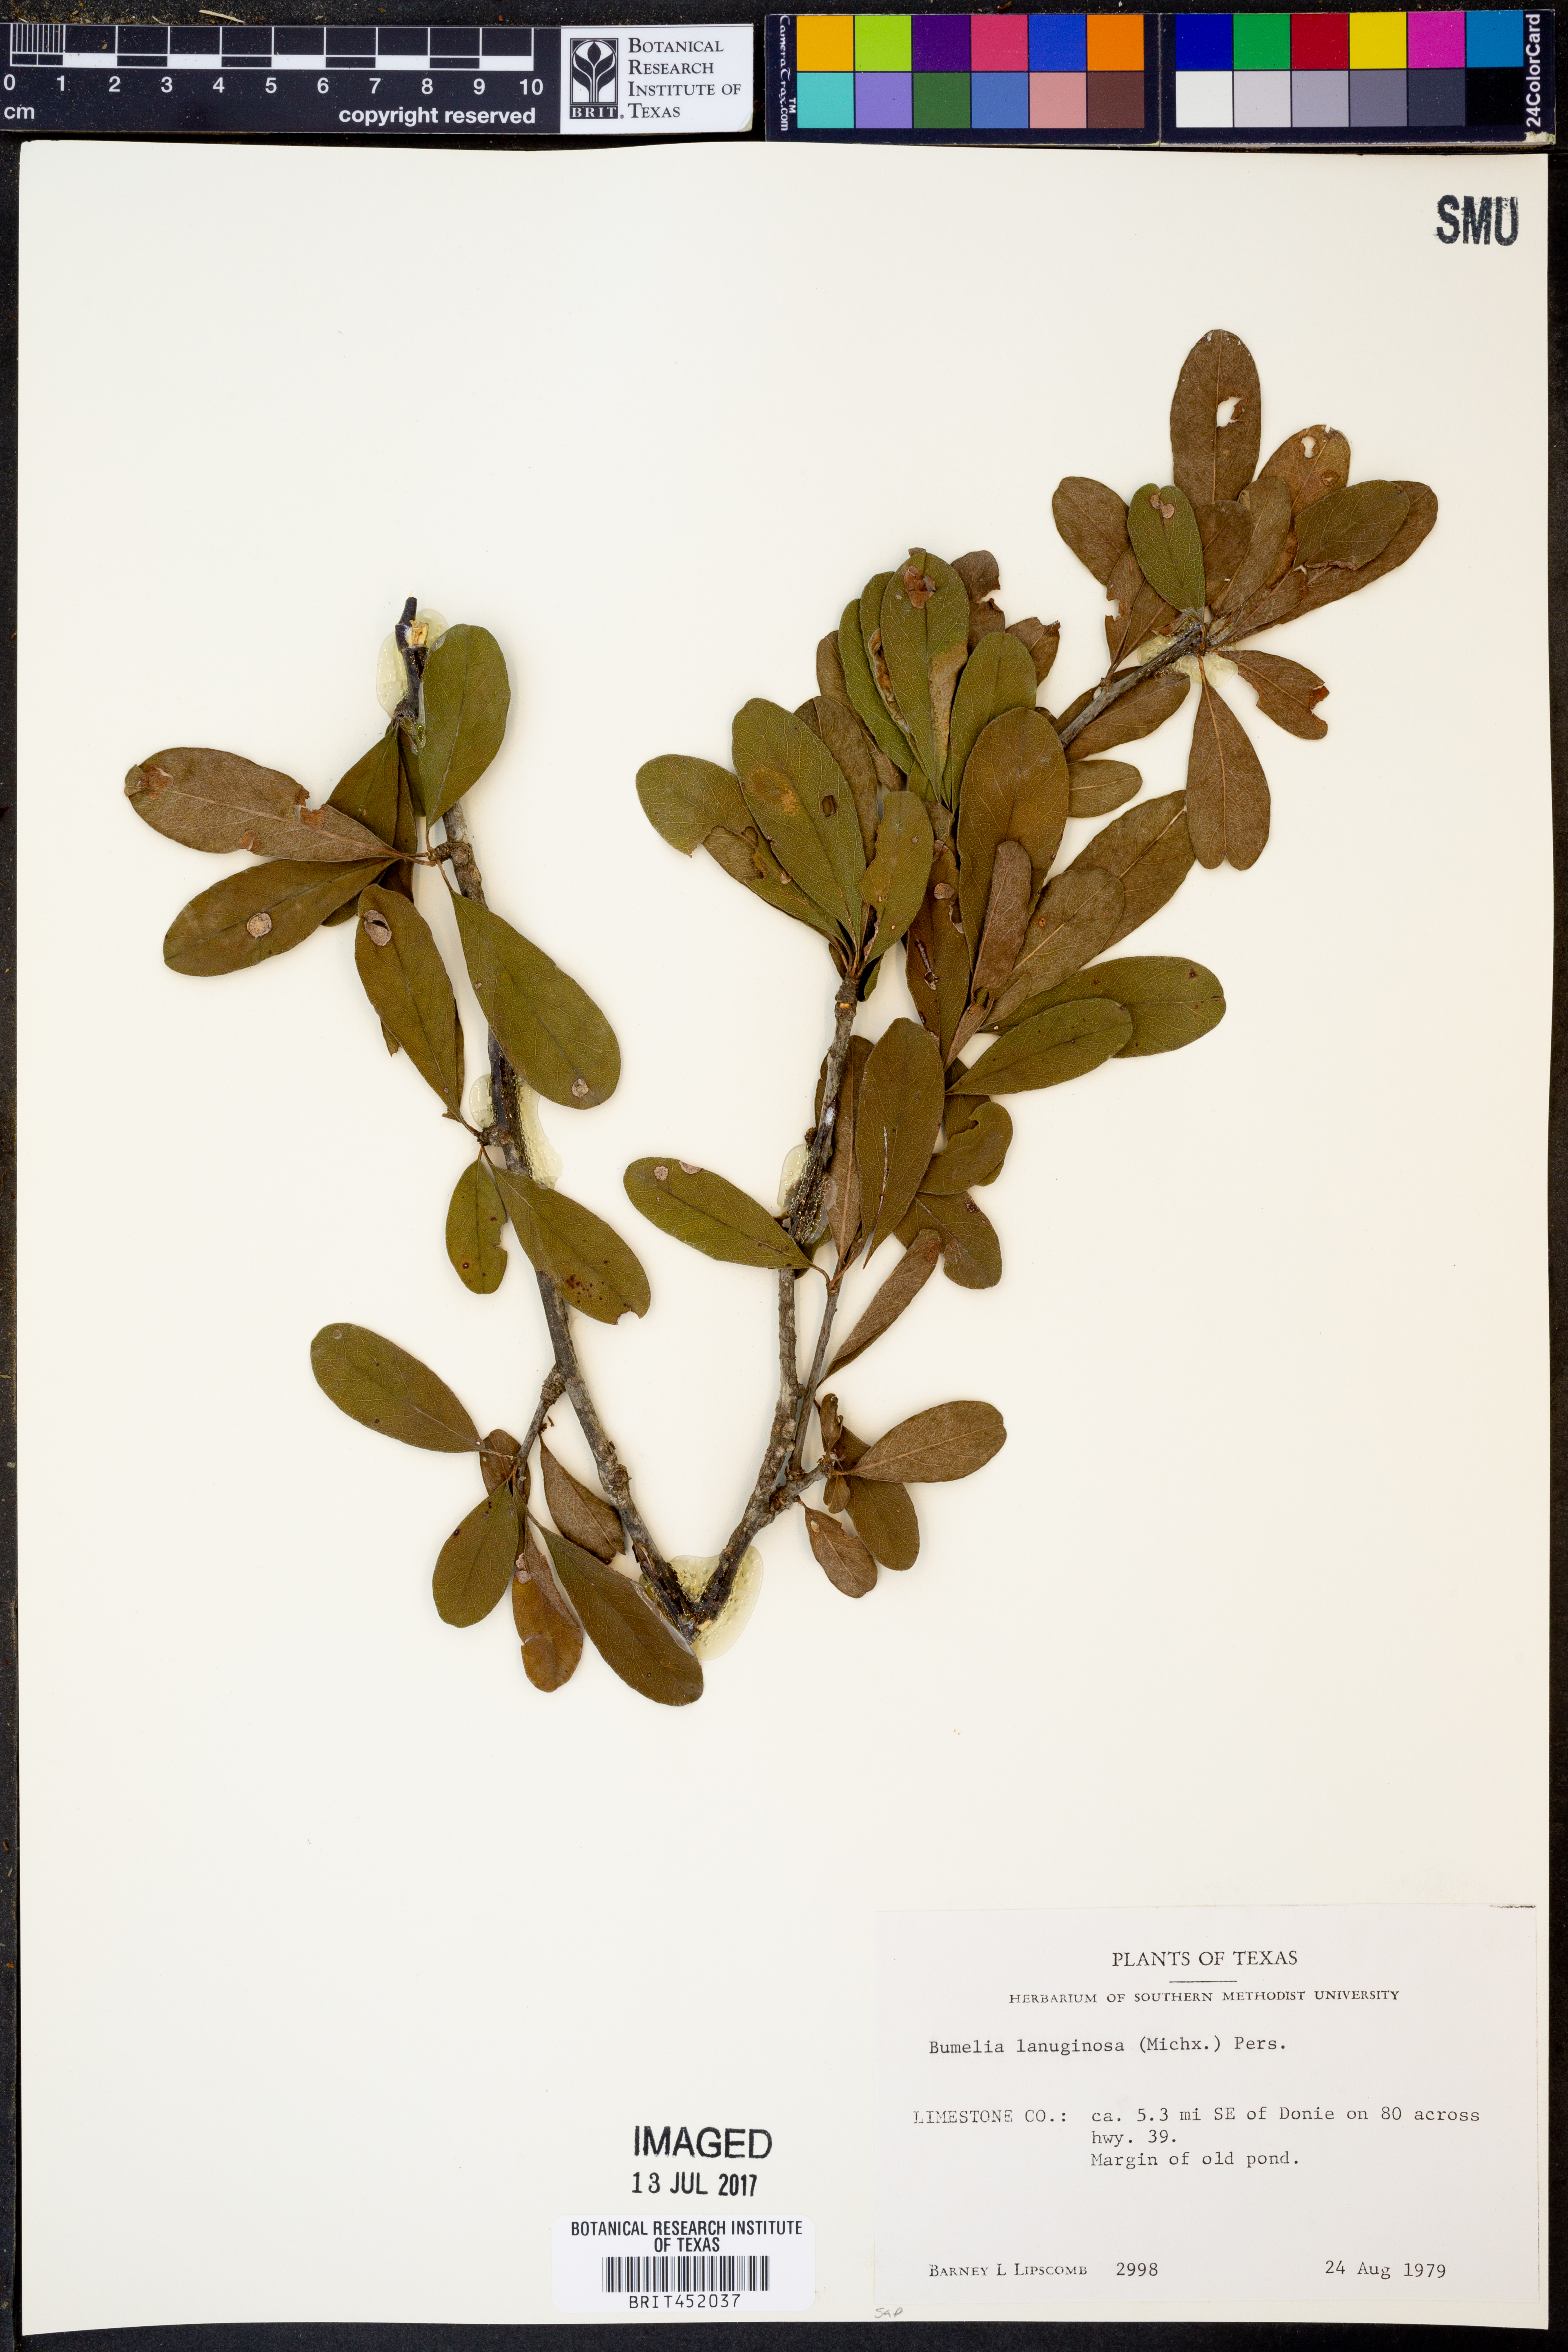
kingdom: Plantae
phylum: Tracheophyta
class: Magnoliopsida
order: Ericales
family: Sapotaceae
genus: Sideroxylon
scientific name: Sideroxylon lanuginosum
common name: Chittamwood
